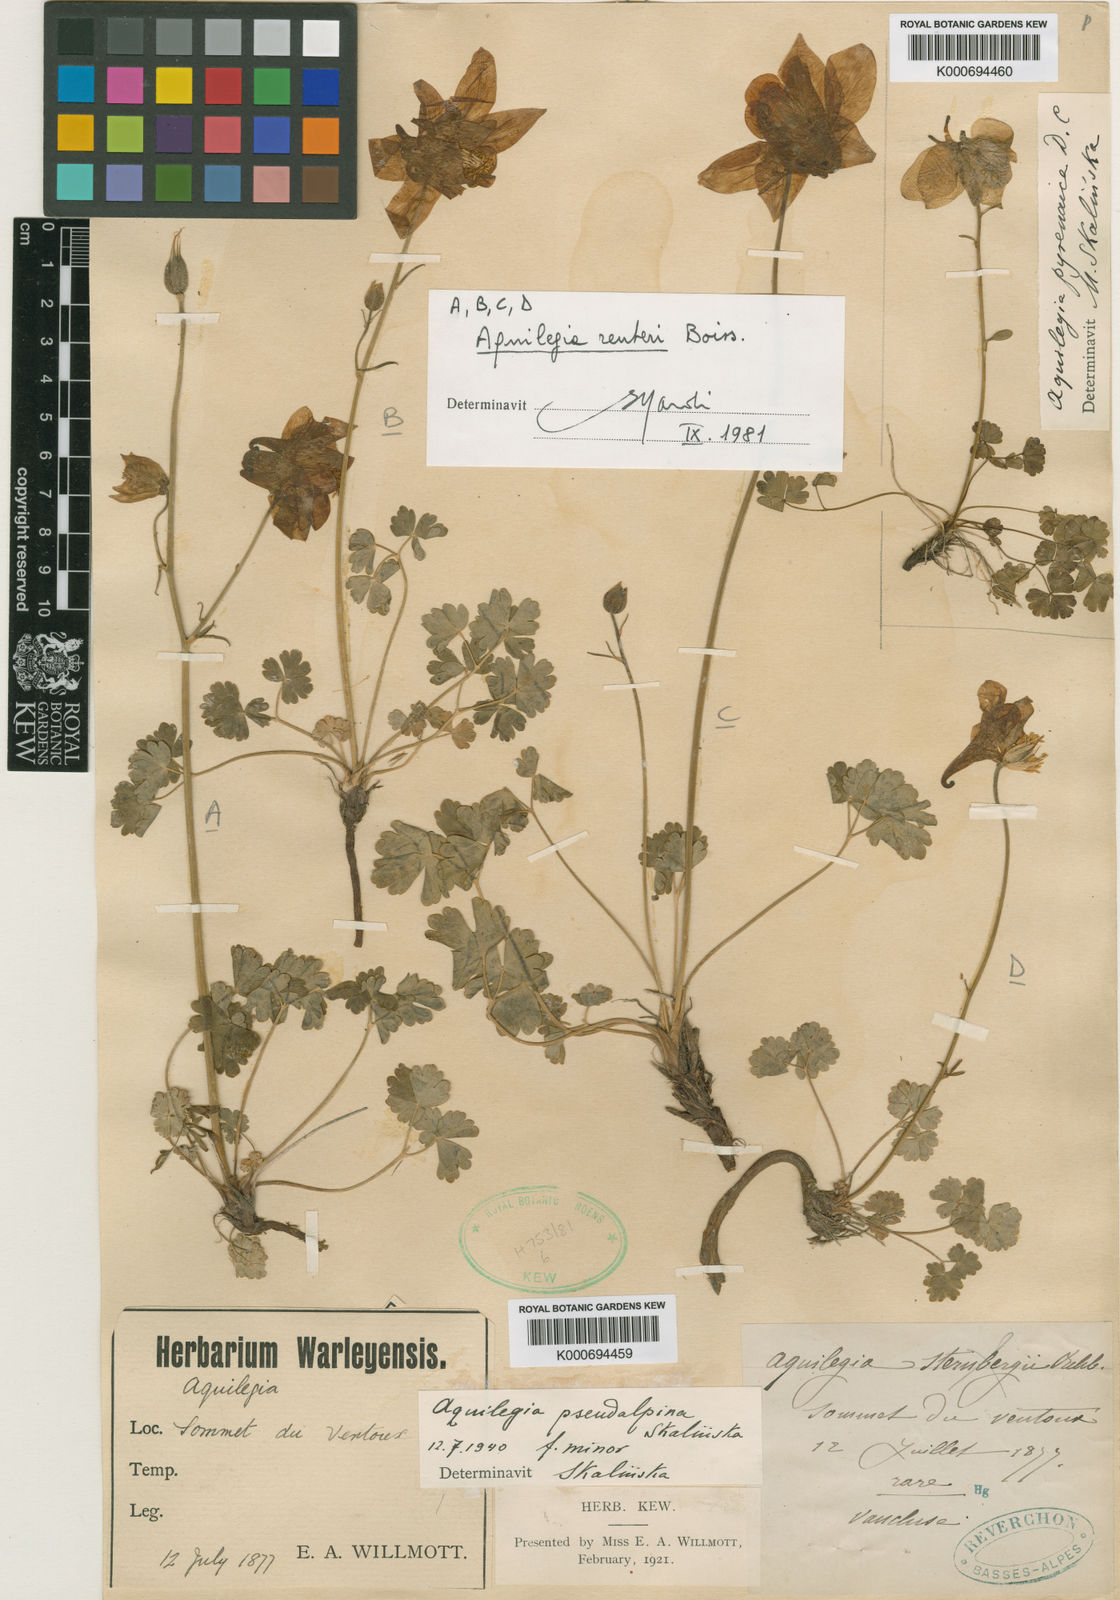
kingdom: Plantae
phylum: Tracheophyta
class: Magnoliopsida
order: Ranunculales
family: Ranunculaceae
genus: Aquilegia
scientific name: Aquilegia bertolonii
